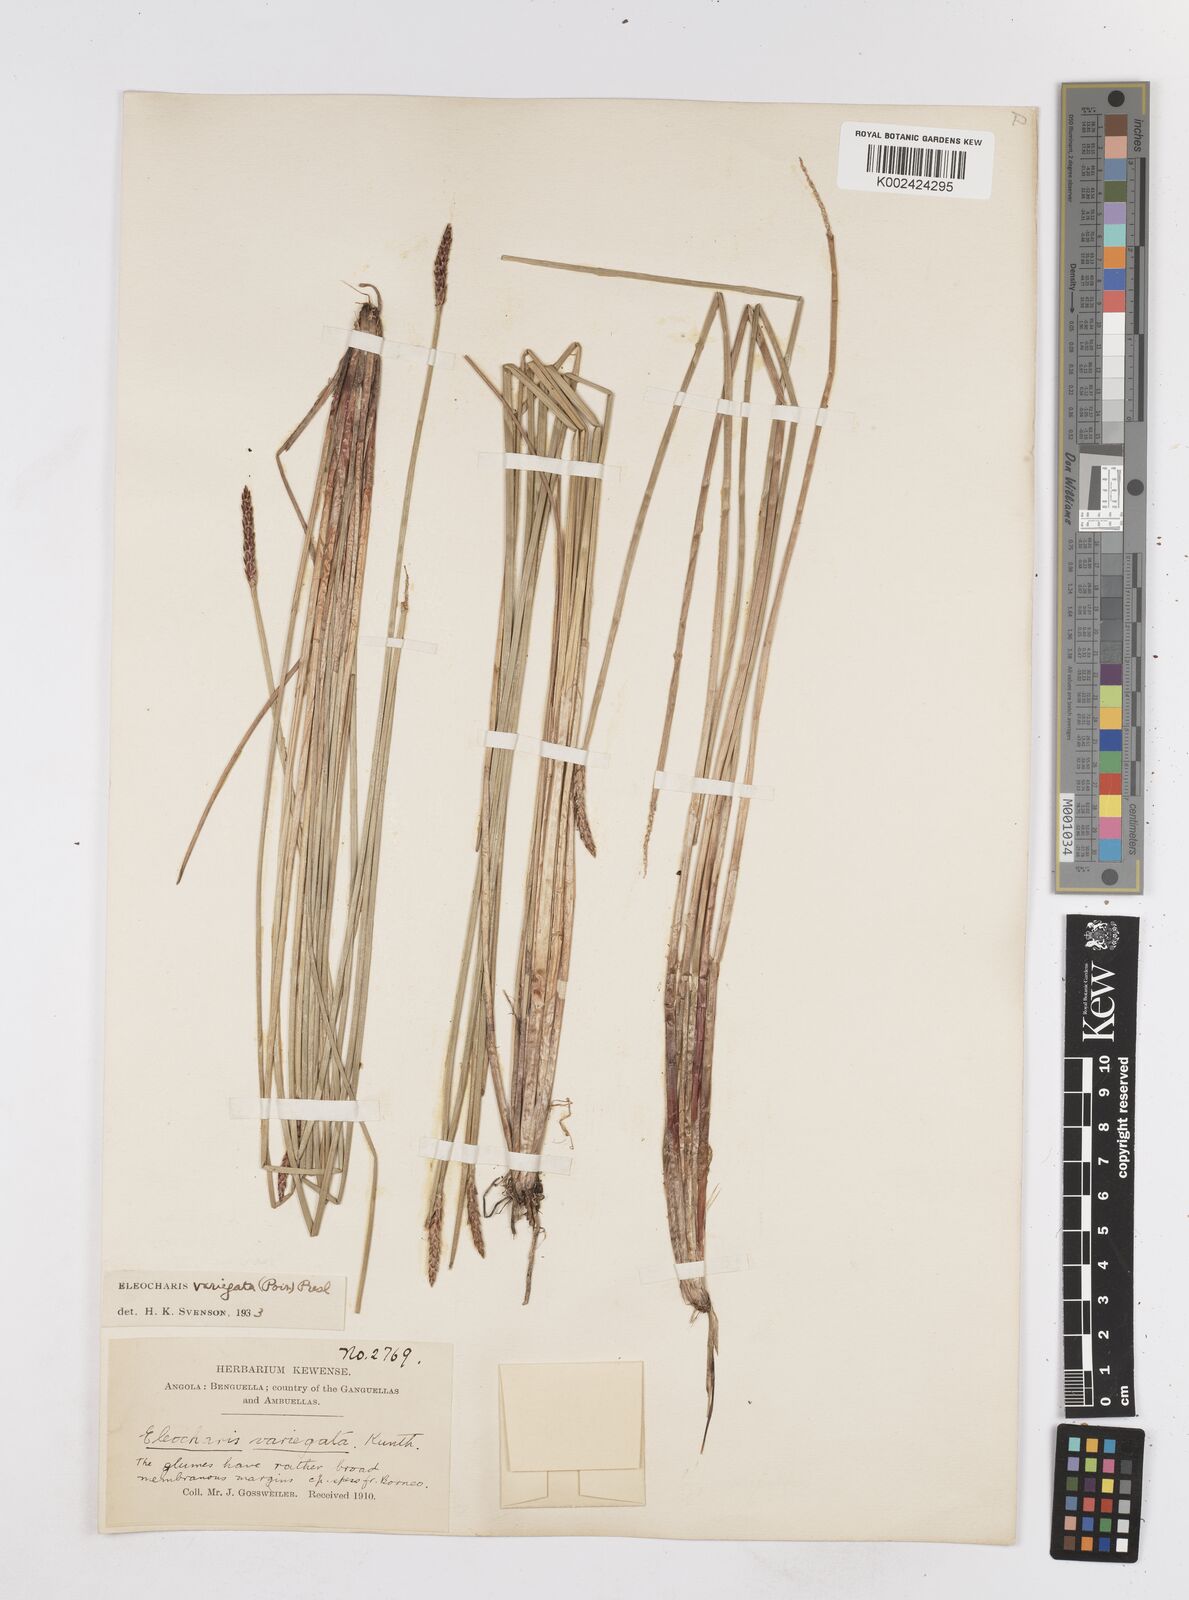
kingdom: Plantae
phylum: Tracheophyta
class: Liliopsida
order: Poales
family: Cyperaceae
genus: Eleocharis
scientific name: Eleocharis variegata
